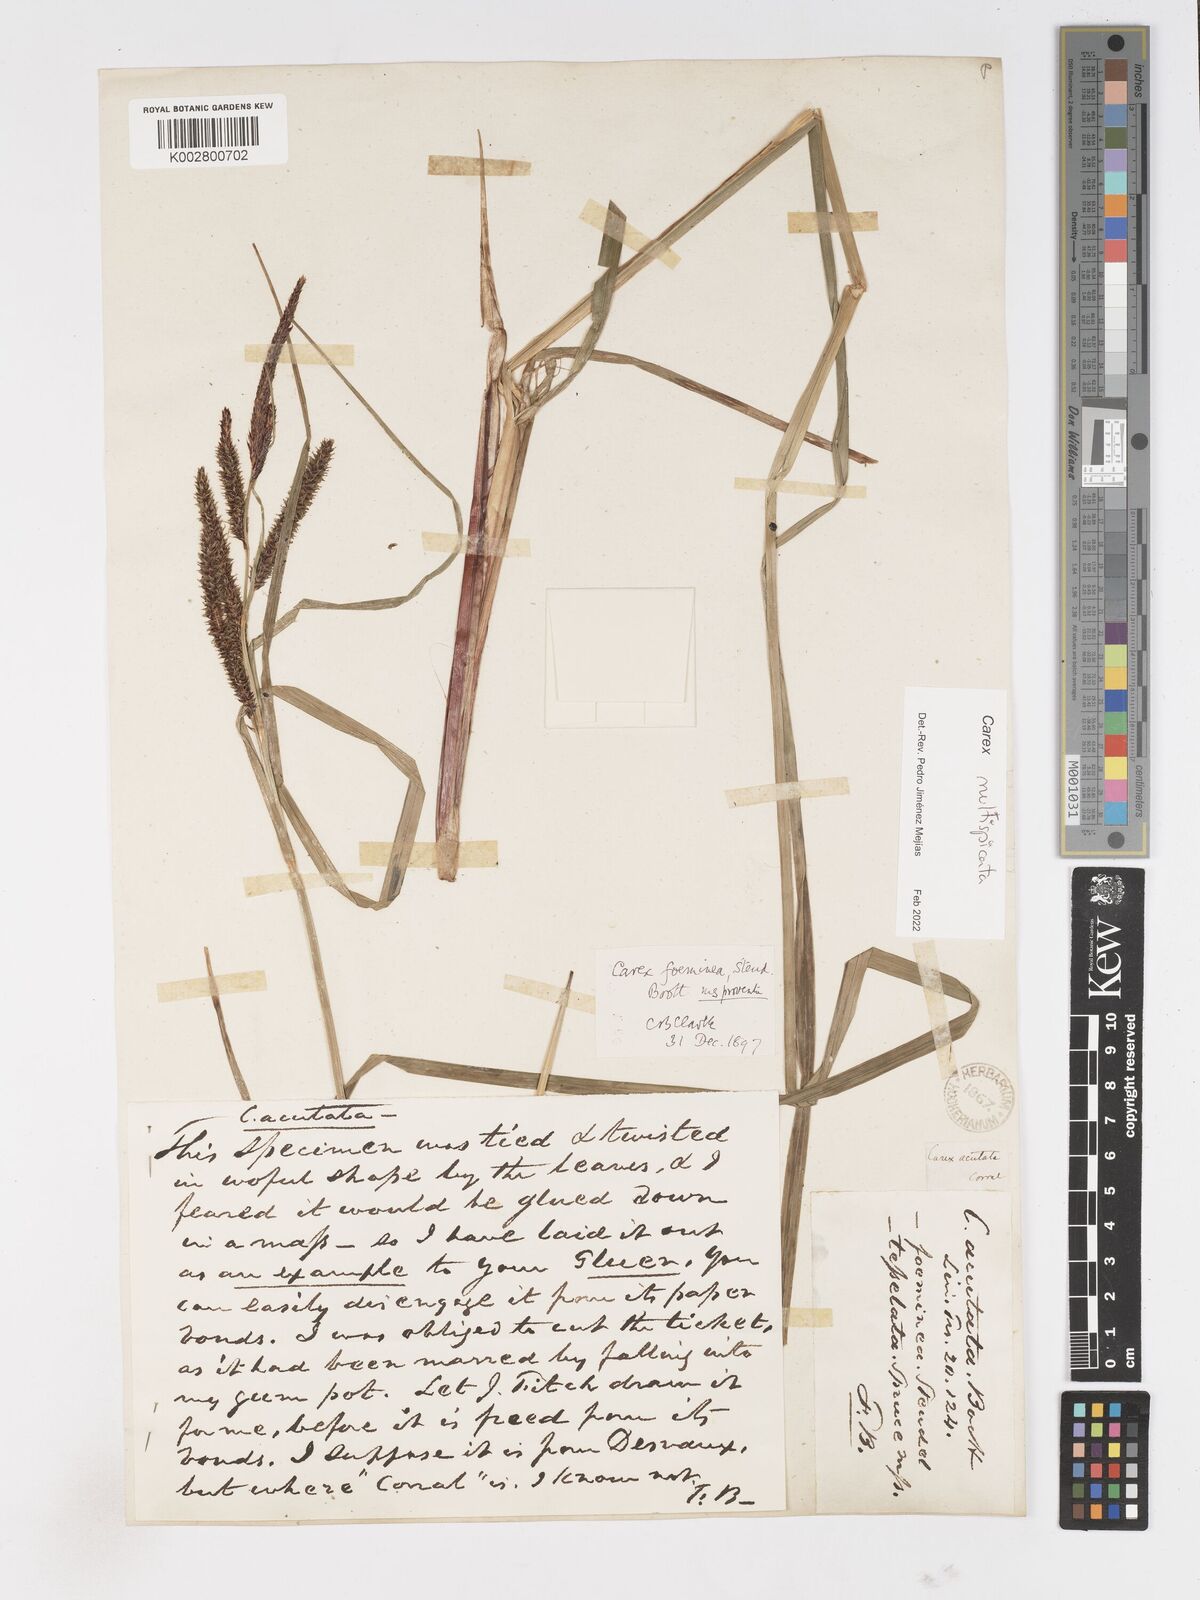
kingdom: Plantae
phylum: Tracheophyta
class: Liliopsida
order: Poales
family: Cyperaceae
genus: Carex
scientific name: Carex multispicata
